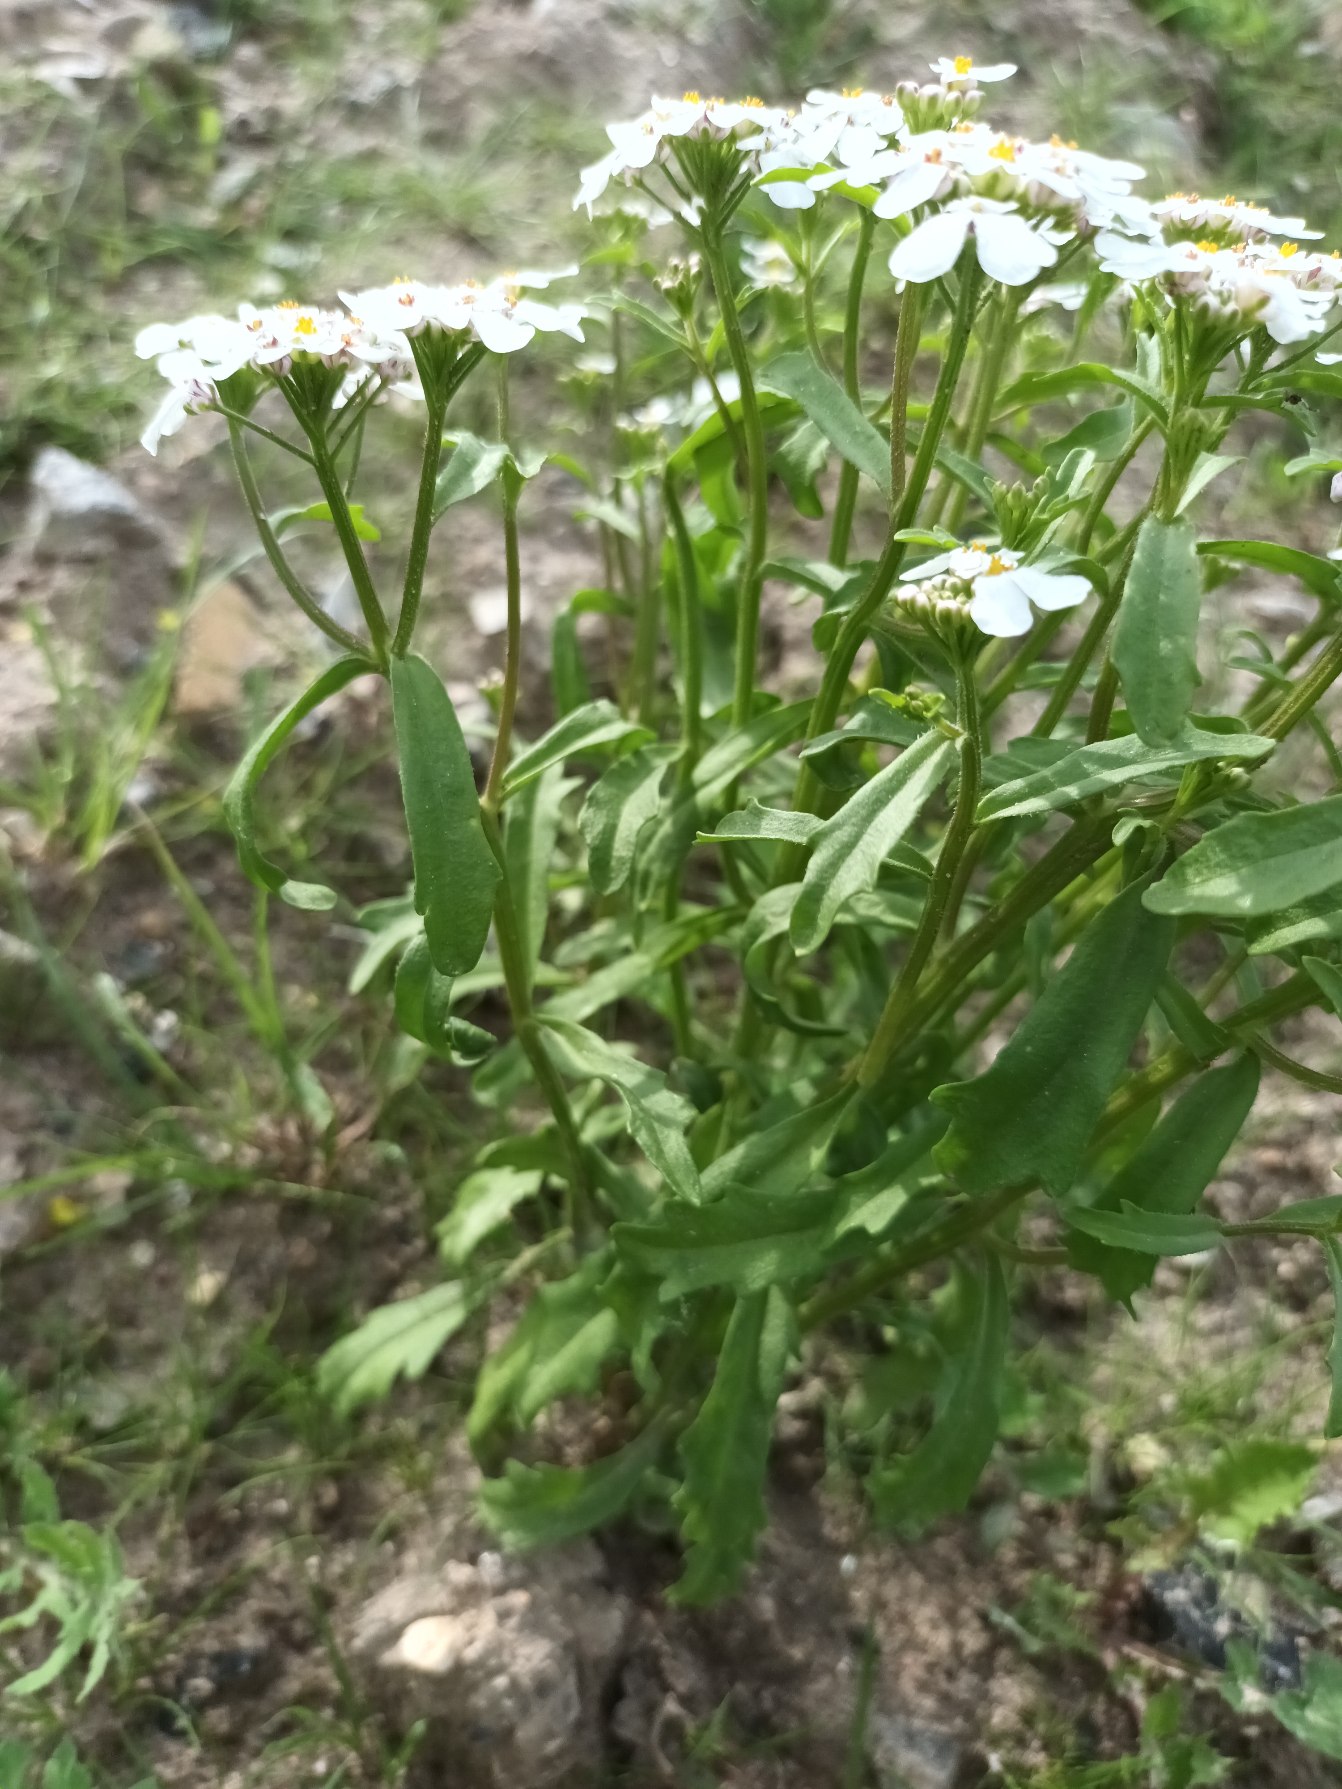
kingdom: Plantae
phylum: Tracheophyta
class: Magnoliopsida
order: Brassicales
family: Brassicaceae
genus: Iberis
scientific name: Iberis amara
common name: Hvid sløjfeblomst
